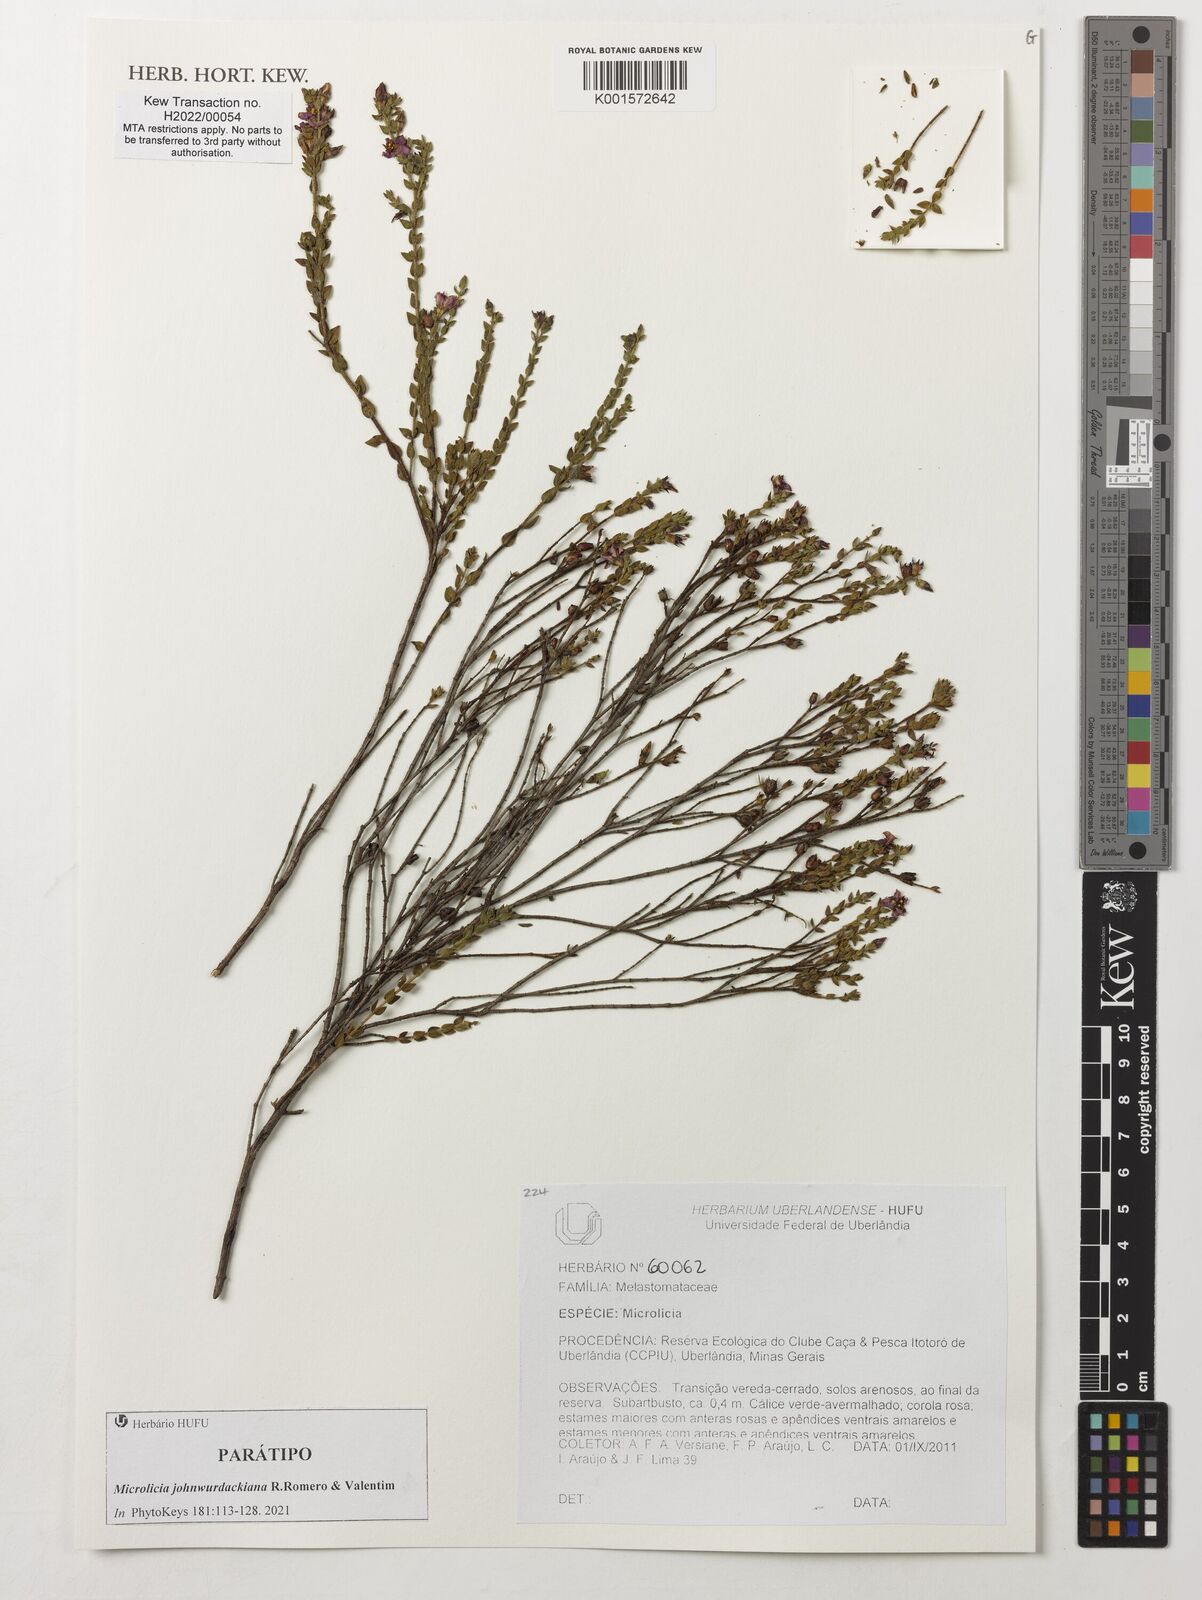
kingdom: Plantae
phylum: Tracheophyta
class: Magnoliopsida
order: Myrtales
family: Melastomataceae
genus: Microlicia
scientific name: Microlicia
